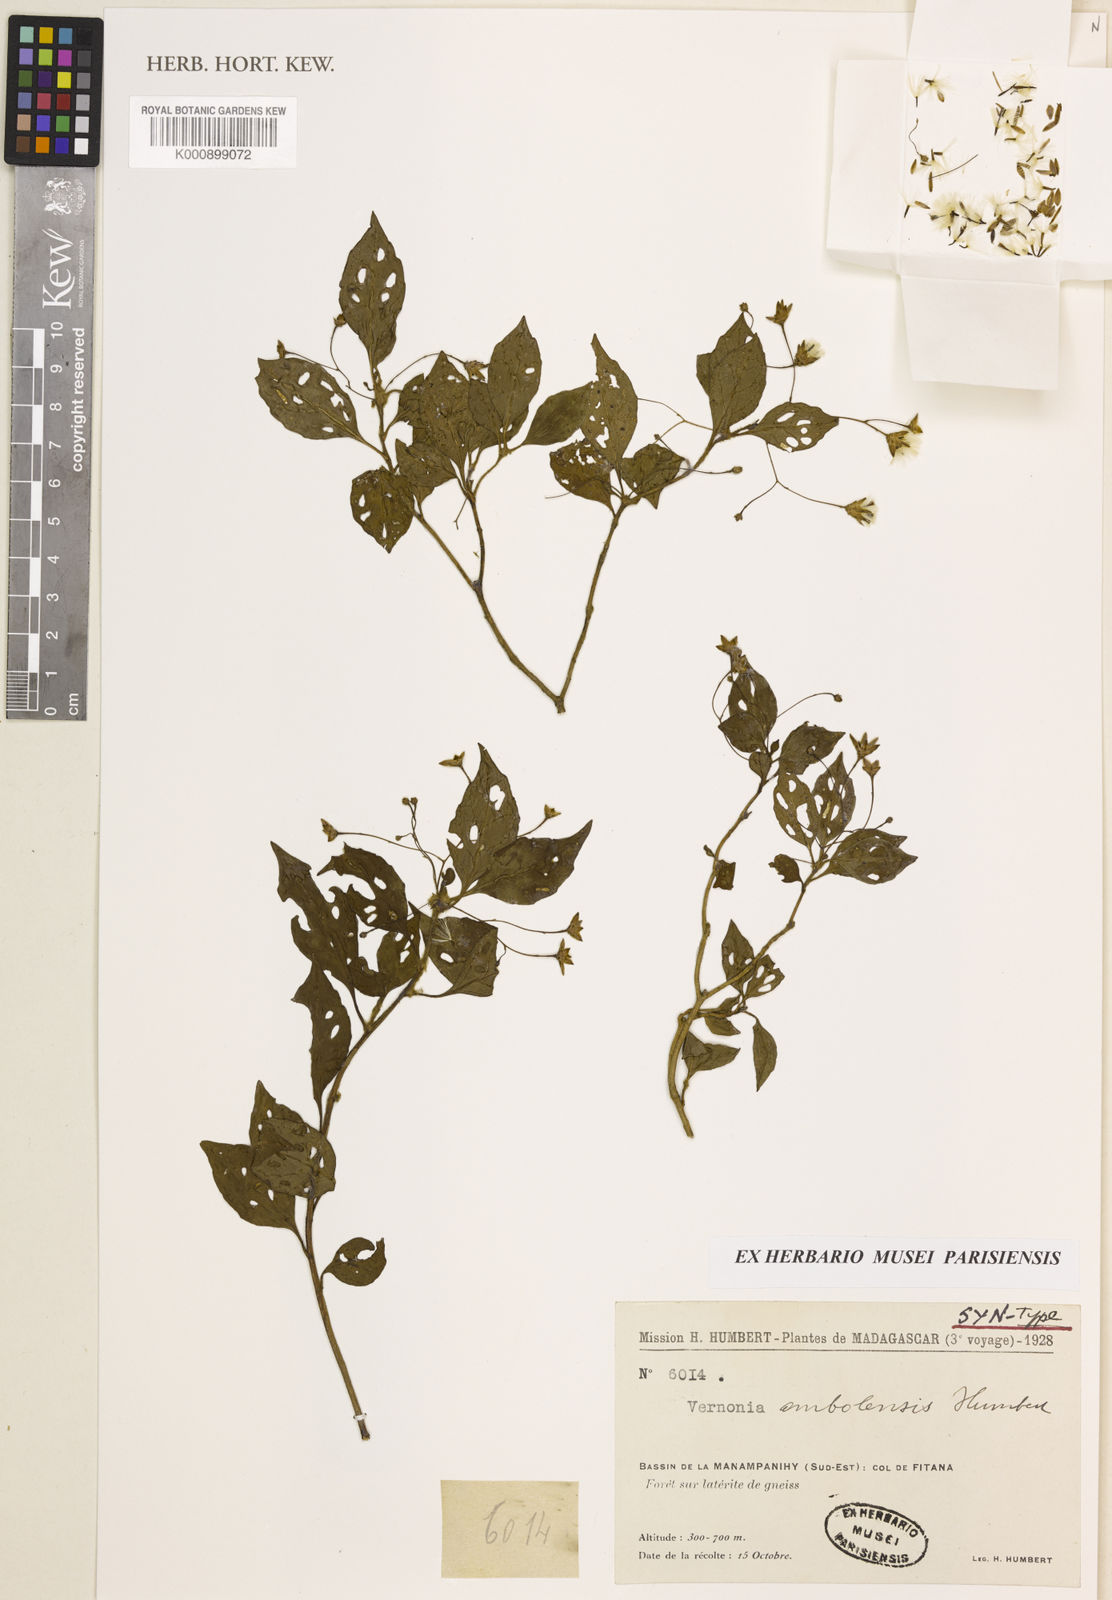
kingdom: Plantae
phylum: Tracheophyta
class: Magnoliopsida
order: Asterales
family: Asteraceae
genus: Vernonia
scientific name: Vernonia ambolensis
